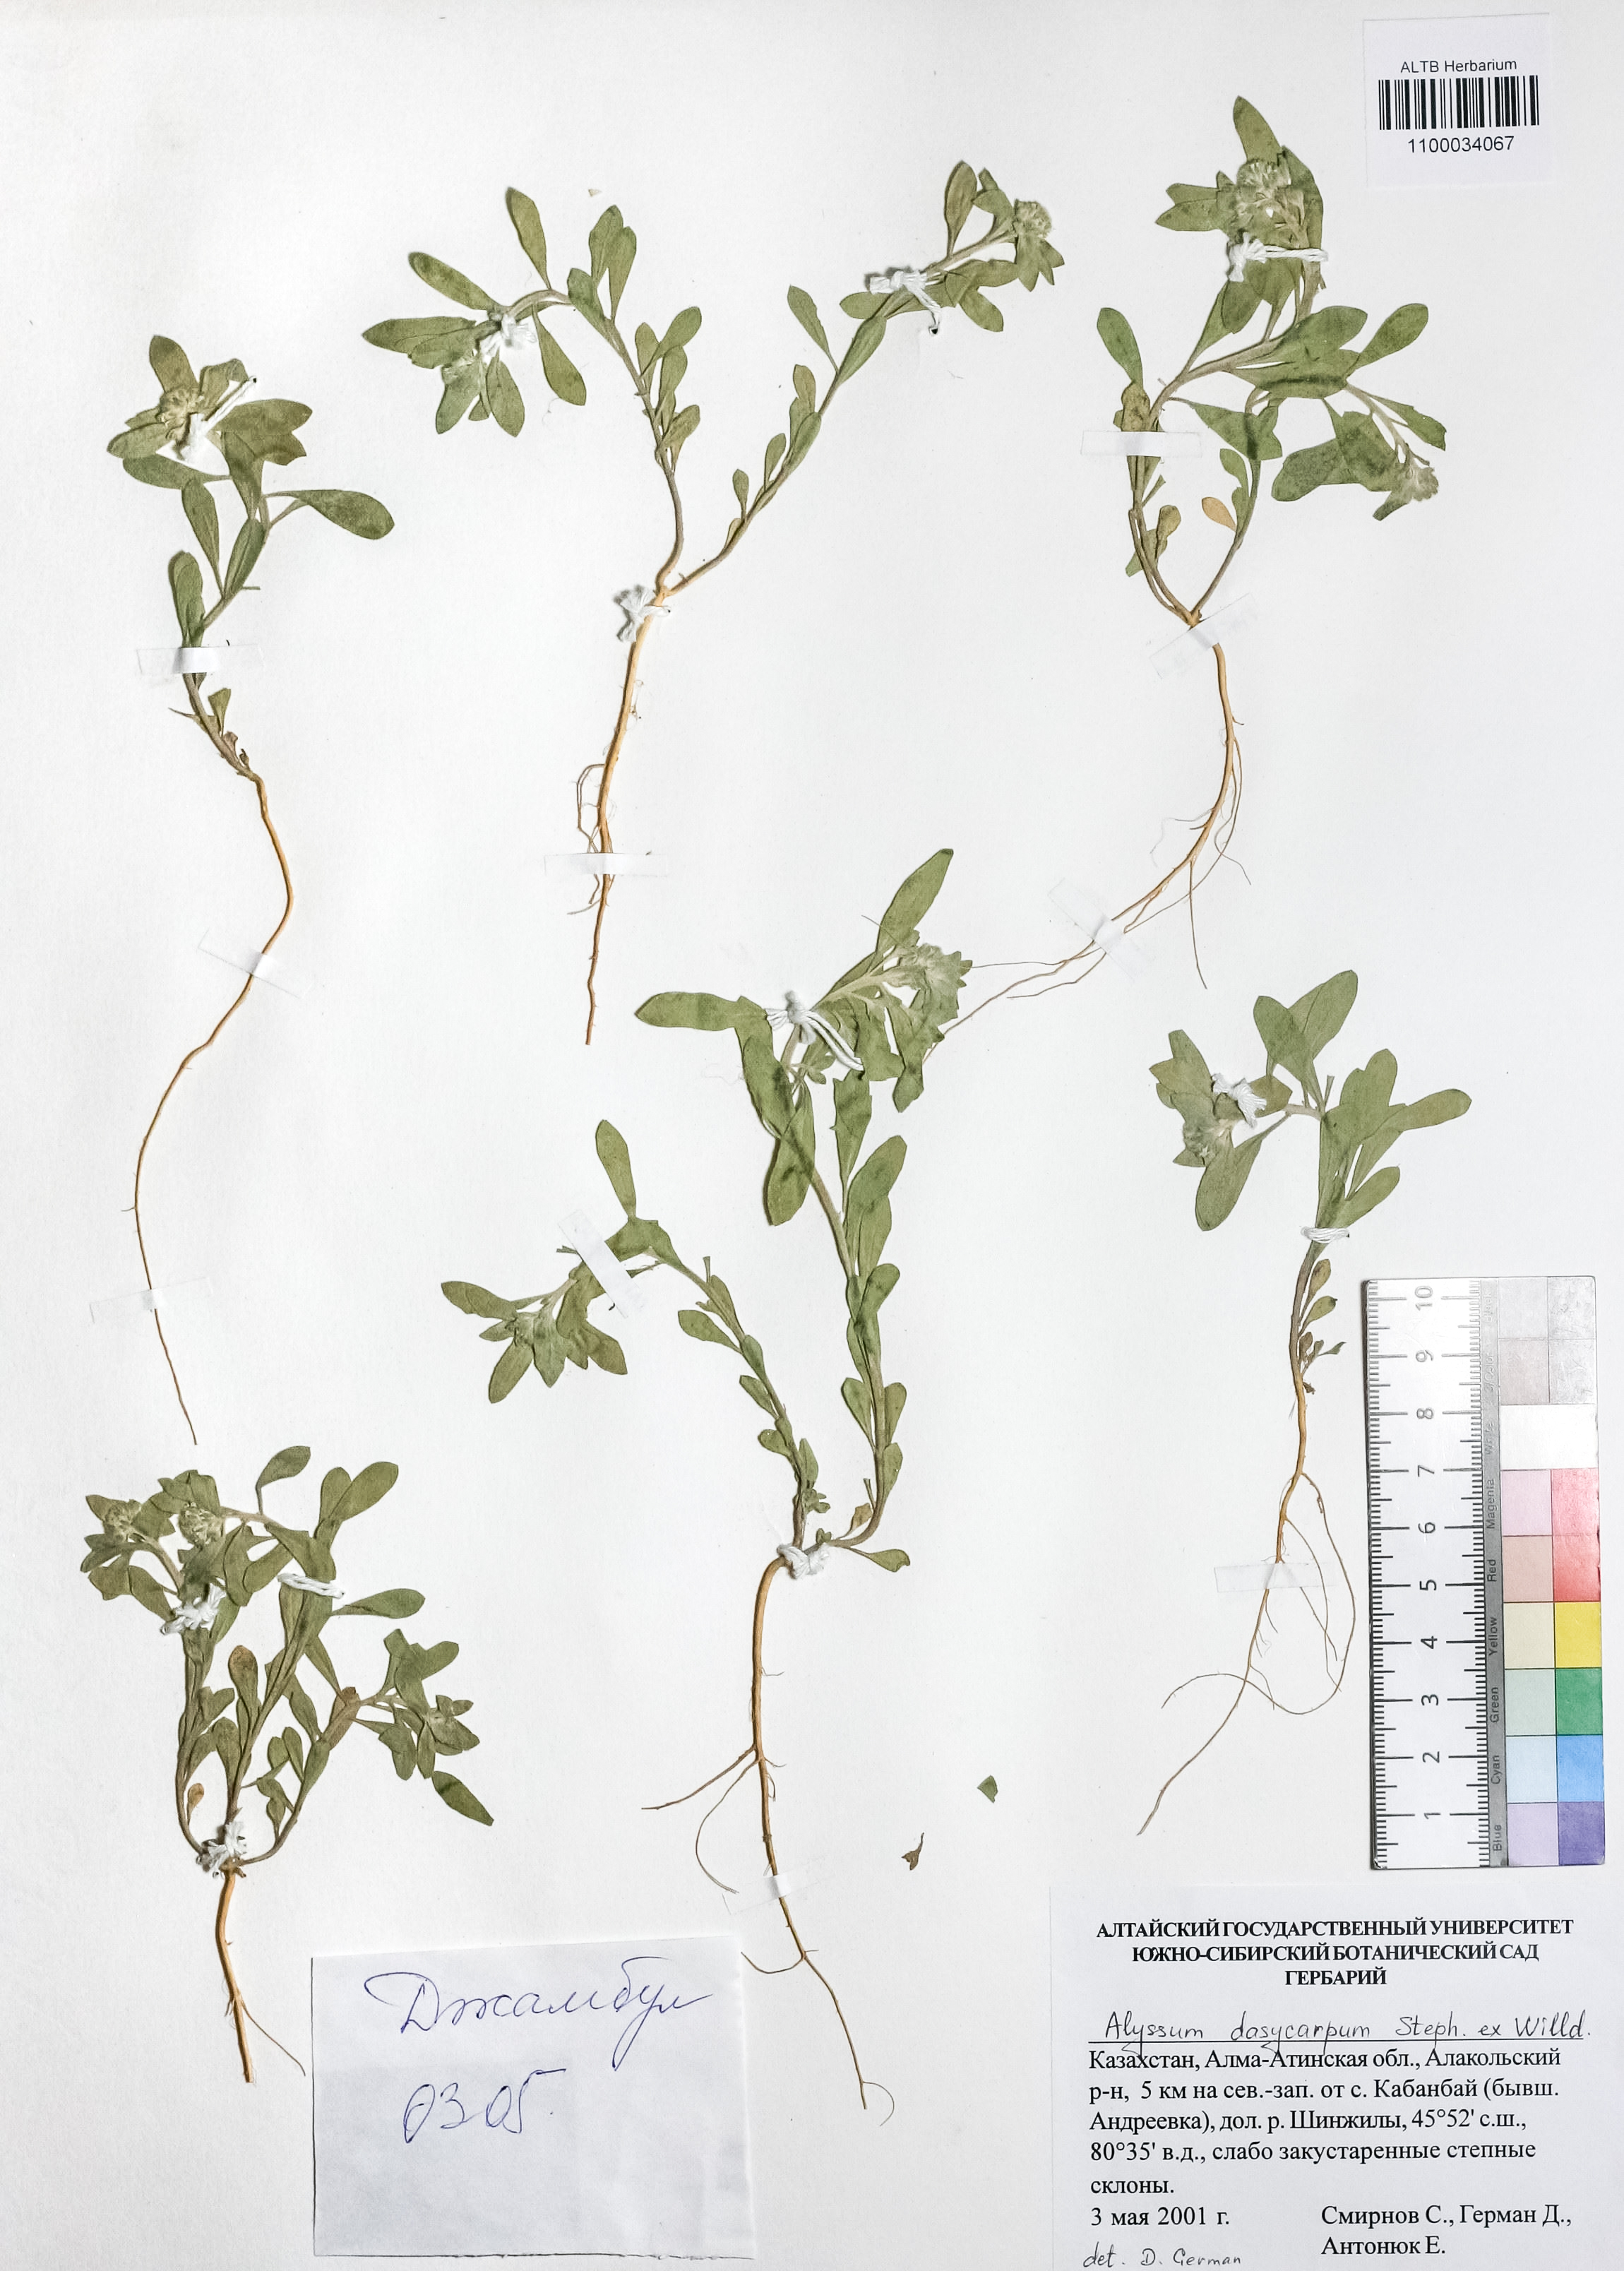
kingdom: Plantae
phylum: Tracheophyta
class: Magnoliopsida
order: Brassicales
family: Brassicaceae
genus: Alyssum
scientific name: Alyssum dasycarpum
